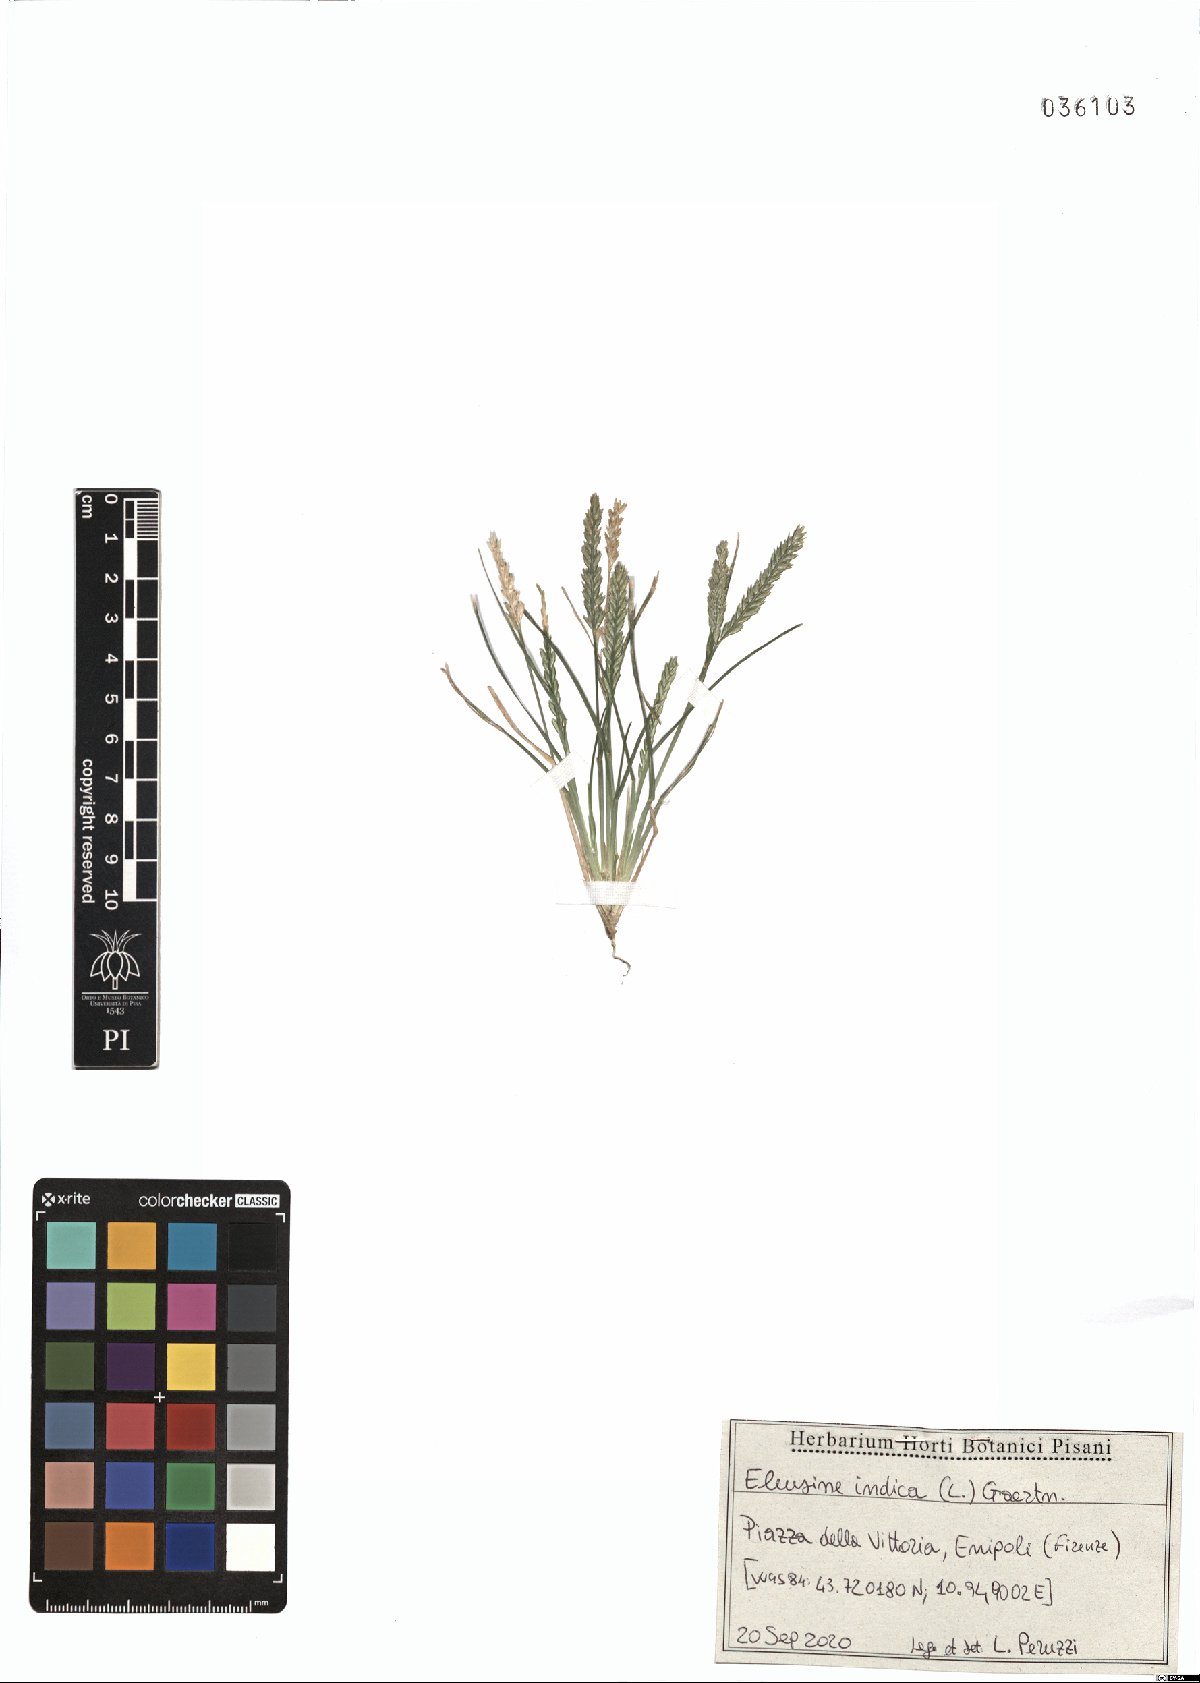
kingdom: Plantae
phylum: Tracheophyta
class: Liliopsida
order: Poales
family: Poaceae
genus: Eleusine
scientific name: Eleusine indica
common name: Yard-grass
